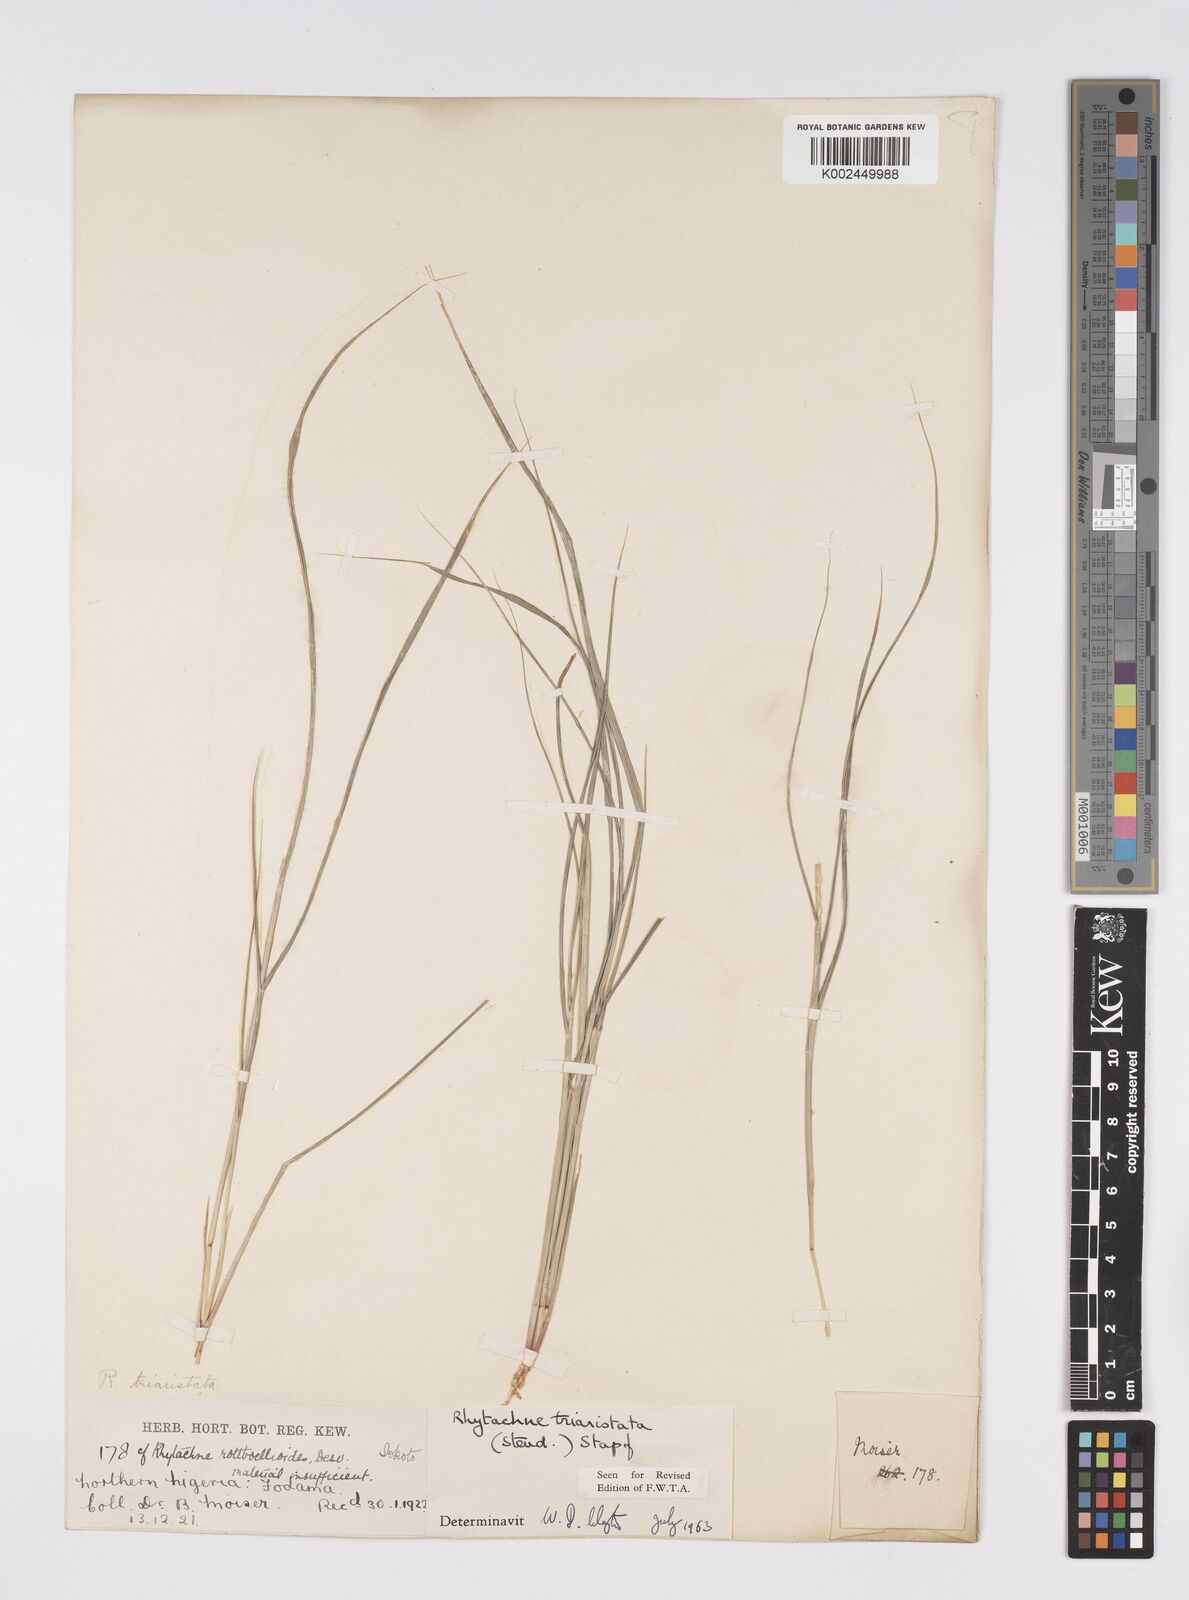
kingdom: Plantae
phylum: Tracheophyta
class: Liliopsida
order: Poales
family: Poaceae
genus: Rhytachne
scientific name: Rhytachne triaristata
